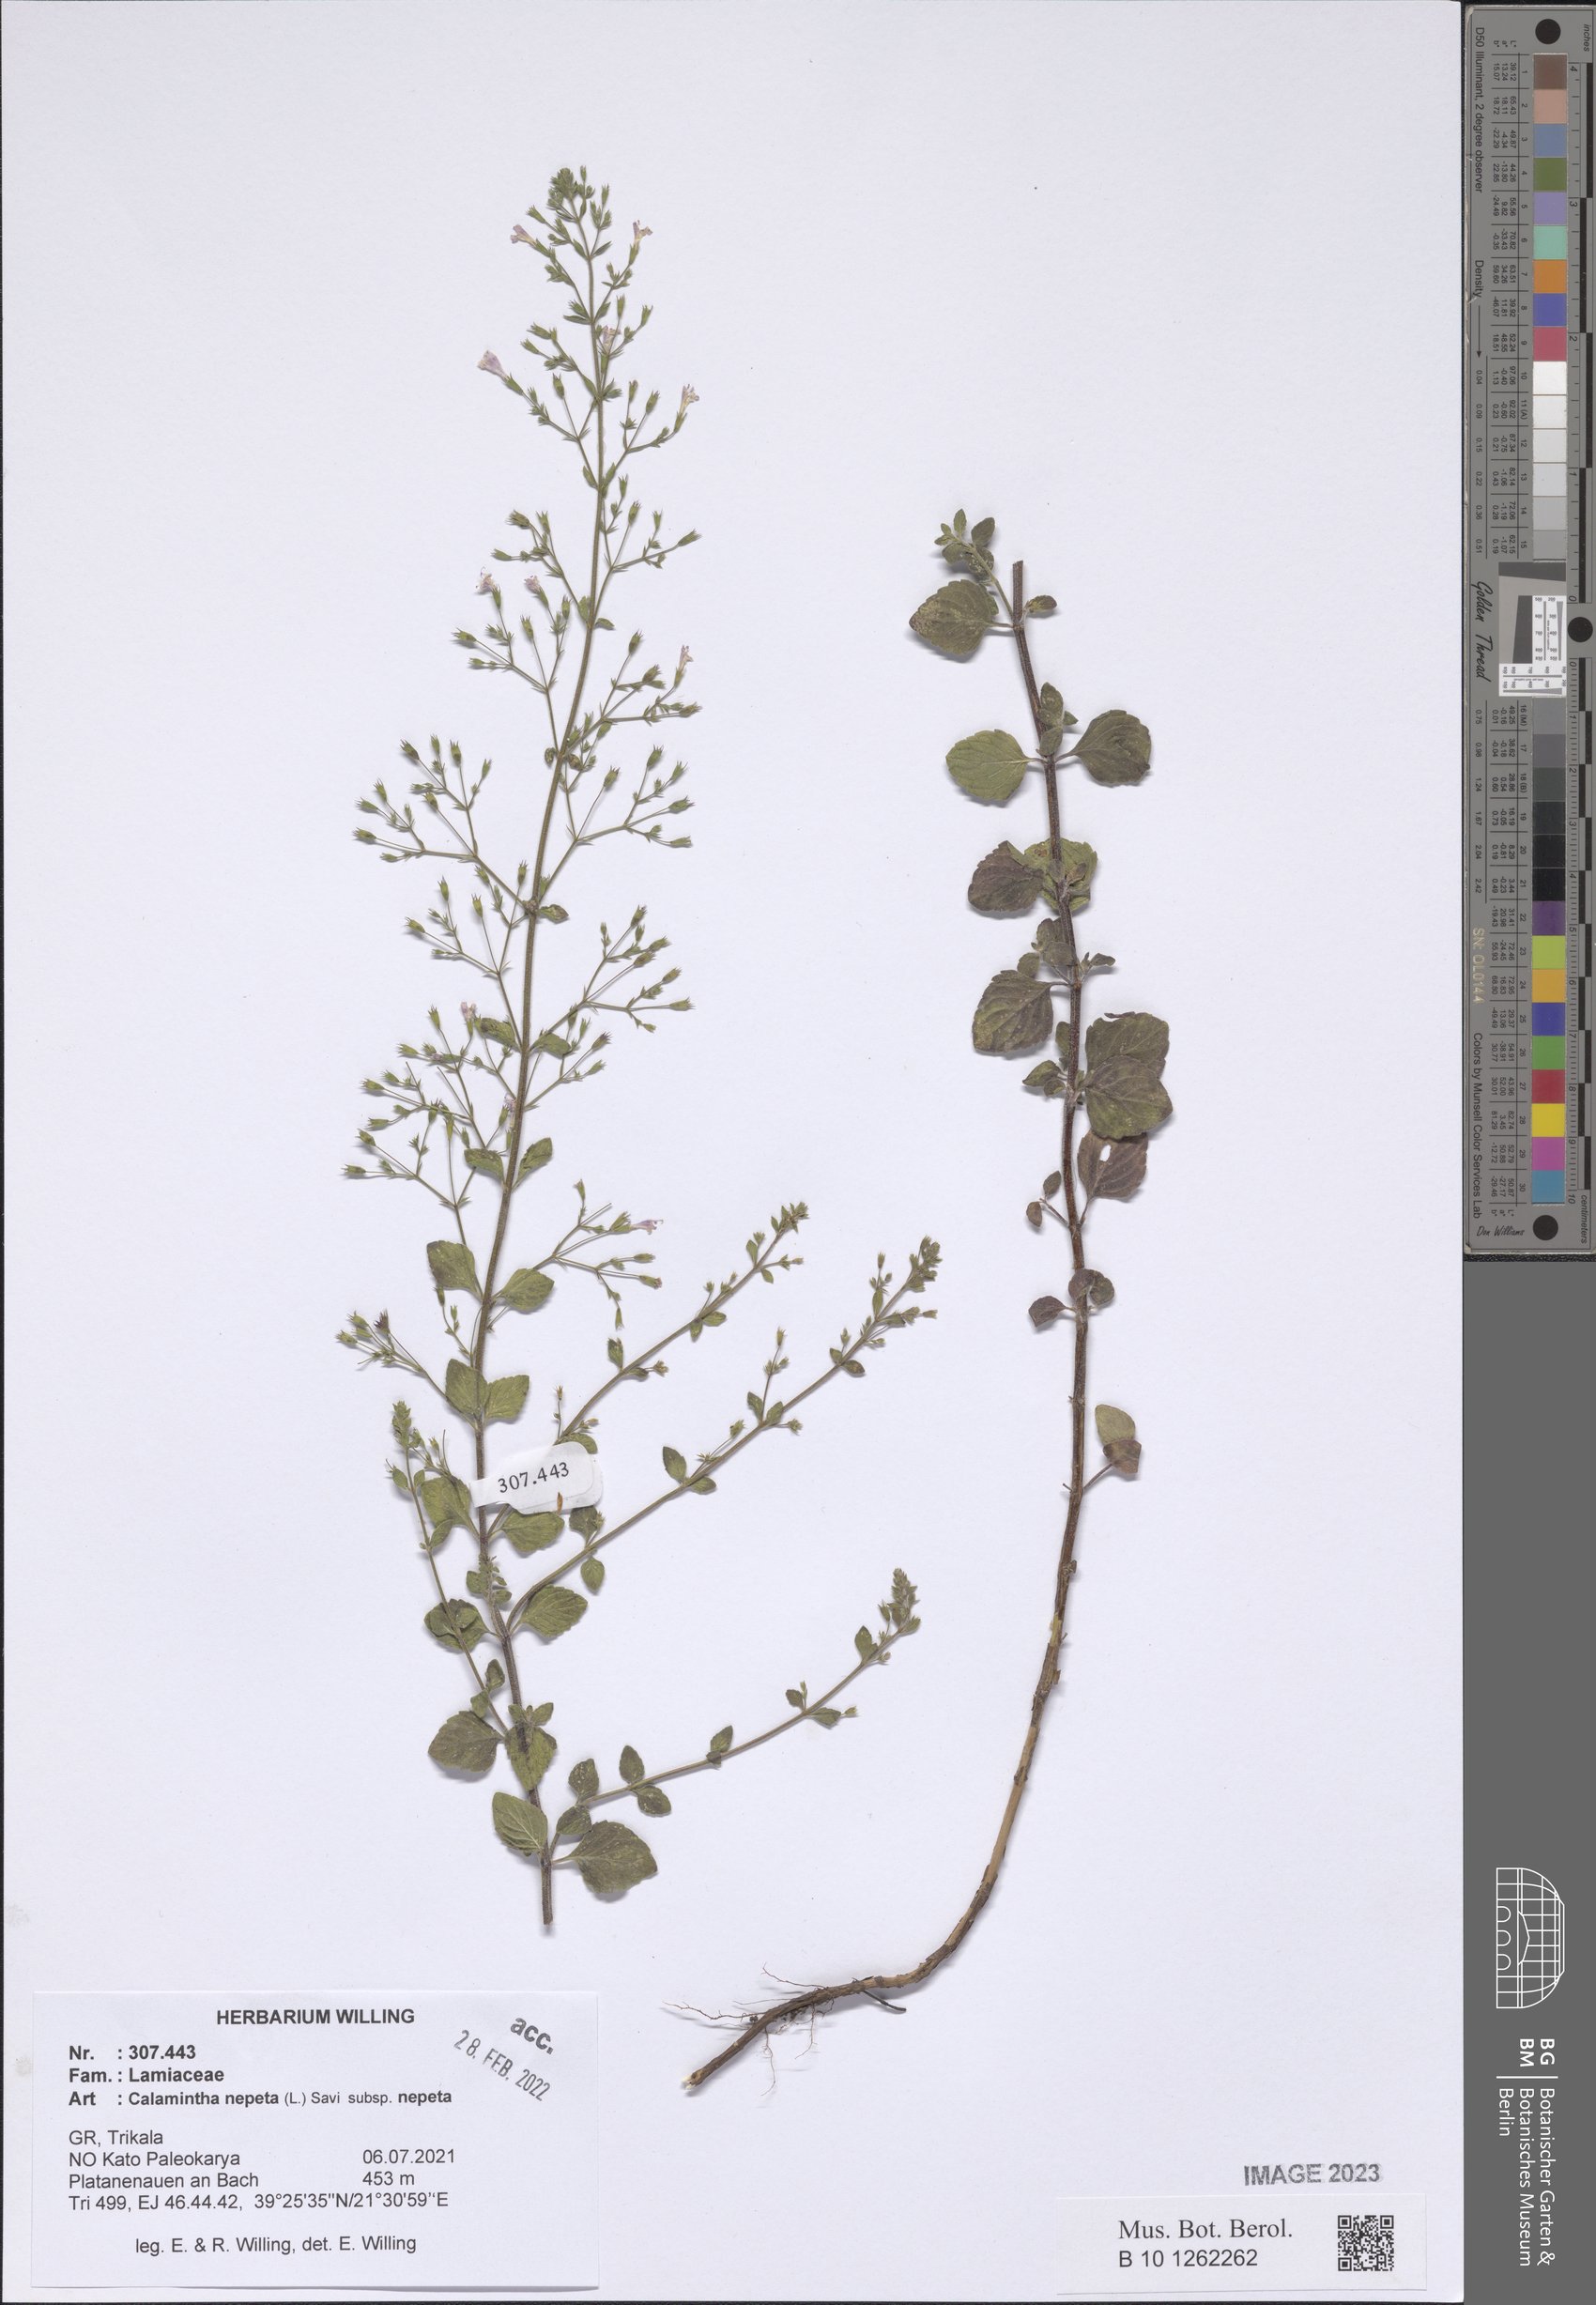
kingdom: Plantae
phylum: Tracheophyta
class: Magnoliopsida
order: Lamiales
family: Lamiaceae
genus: Clinopodium
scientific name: Clinopodium nepeta
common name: Lesser calamint
